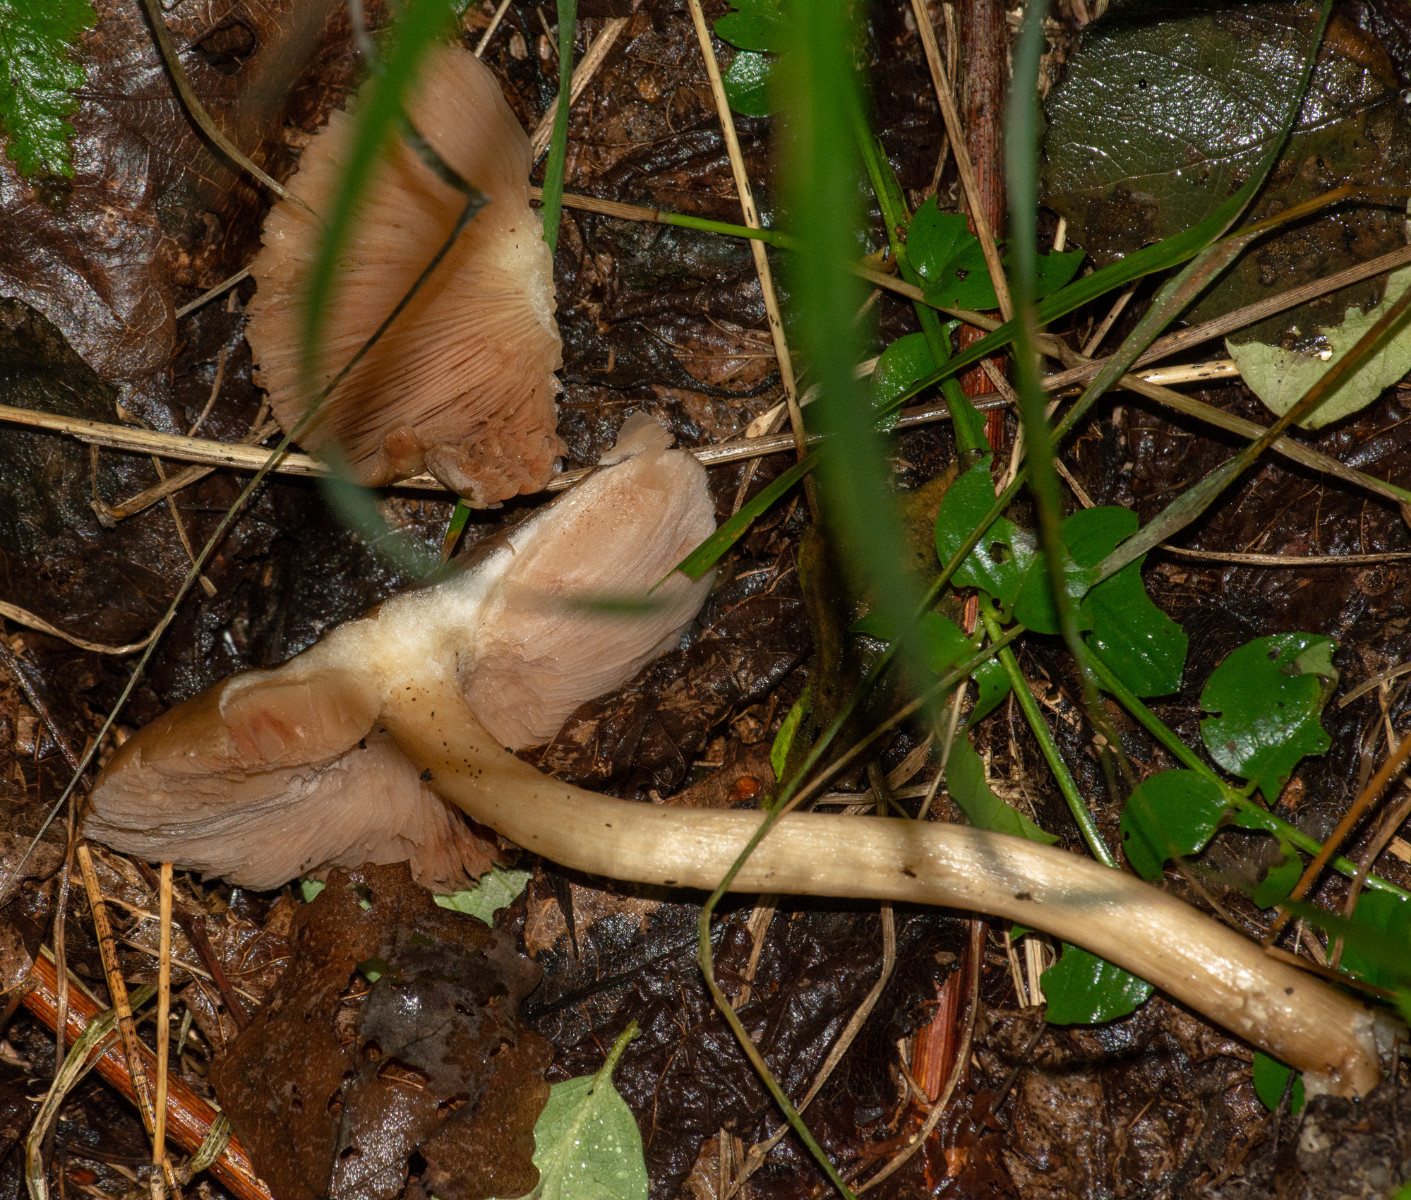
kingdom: Fungi
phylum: Basidiomycota
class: Agaricomycetes
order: Agaricales
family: Pluteaceae
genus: Pluteus
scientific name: Pluteus
